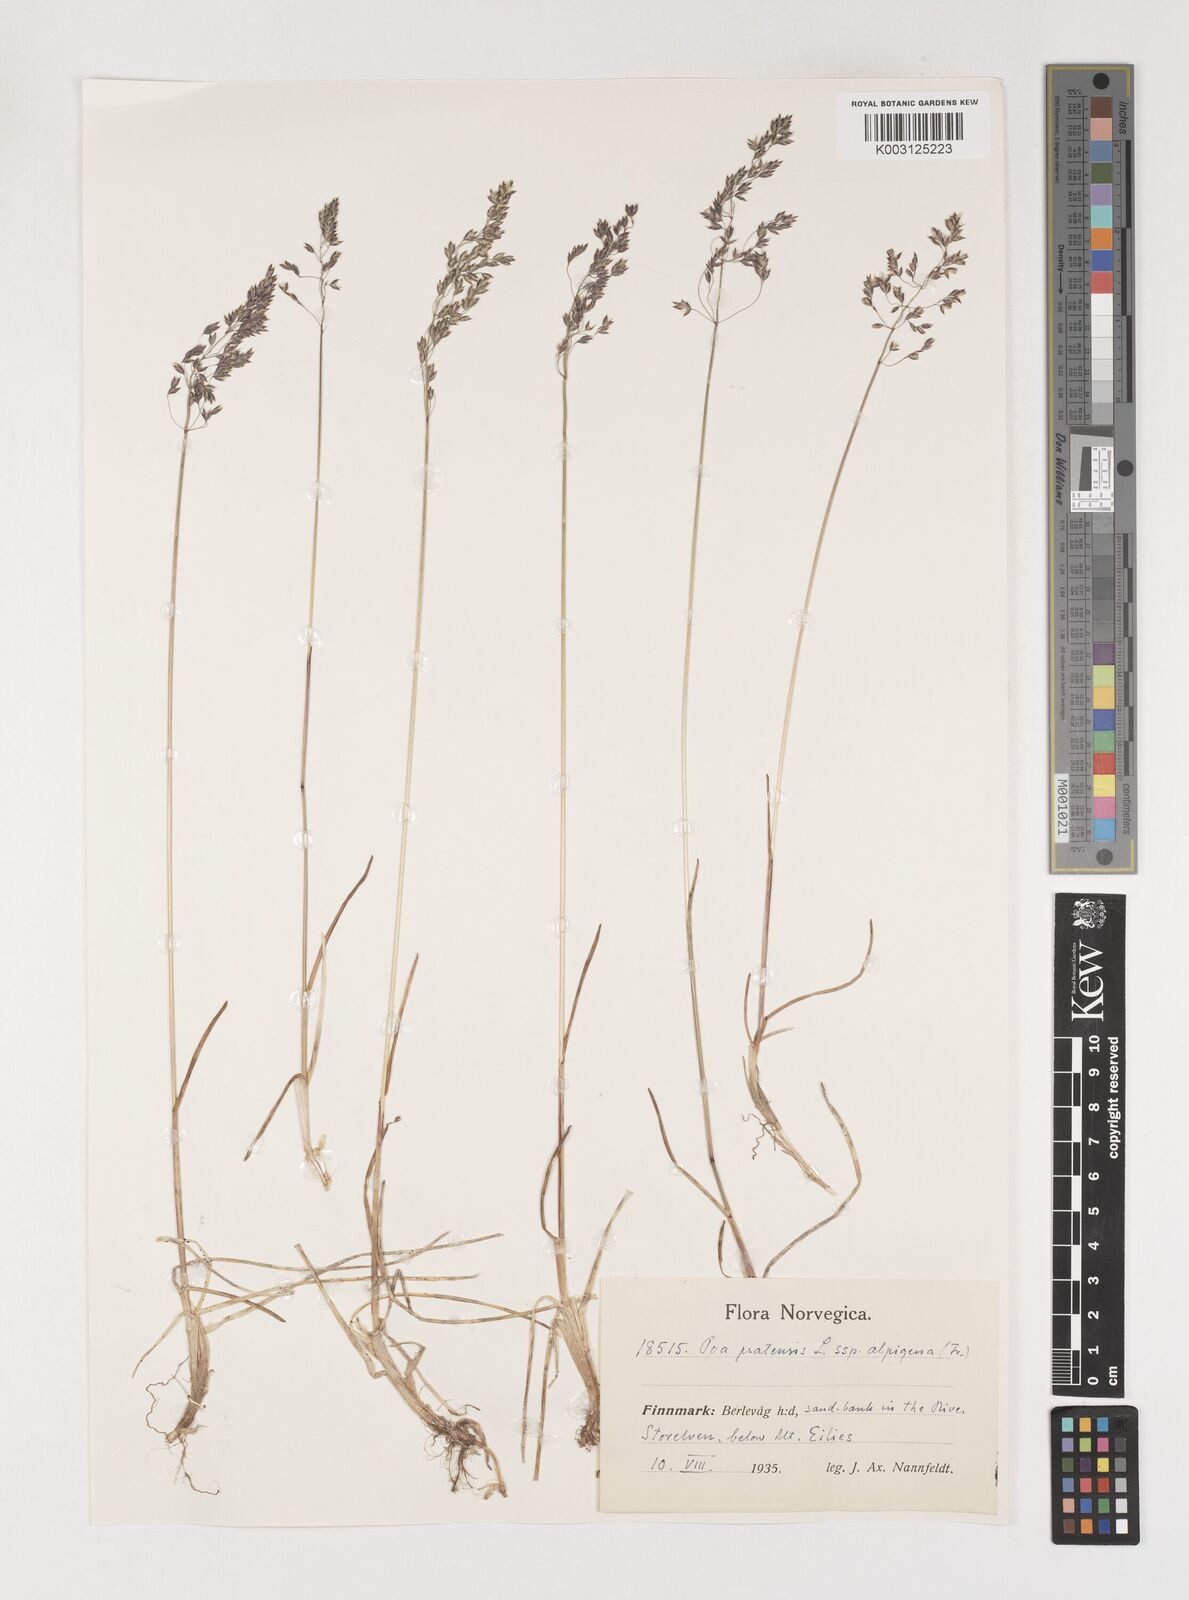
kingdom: Plantae
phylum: Tracheophyta
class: Liliopsida
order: Poales
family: Poaceae
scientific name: Poaceae
